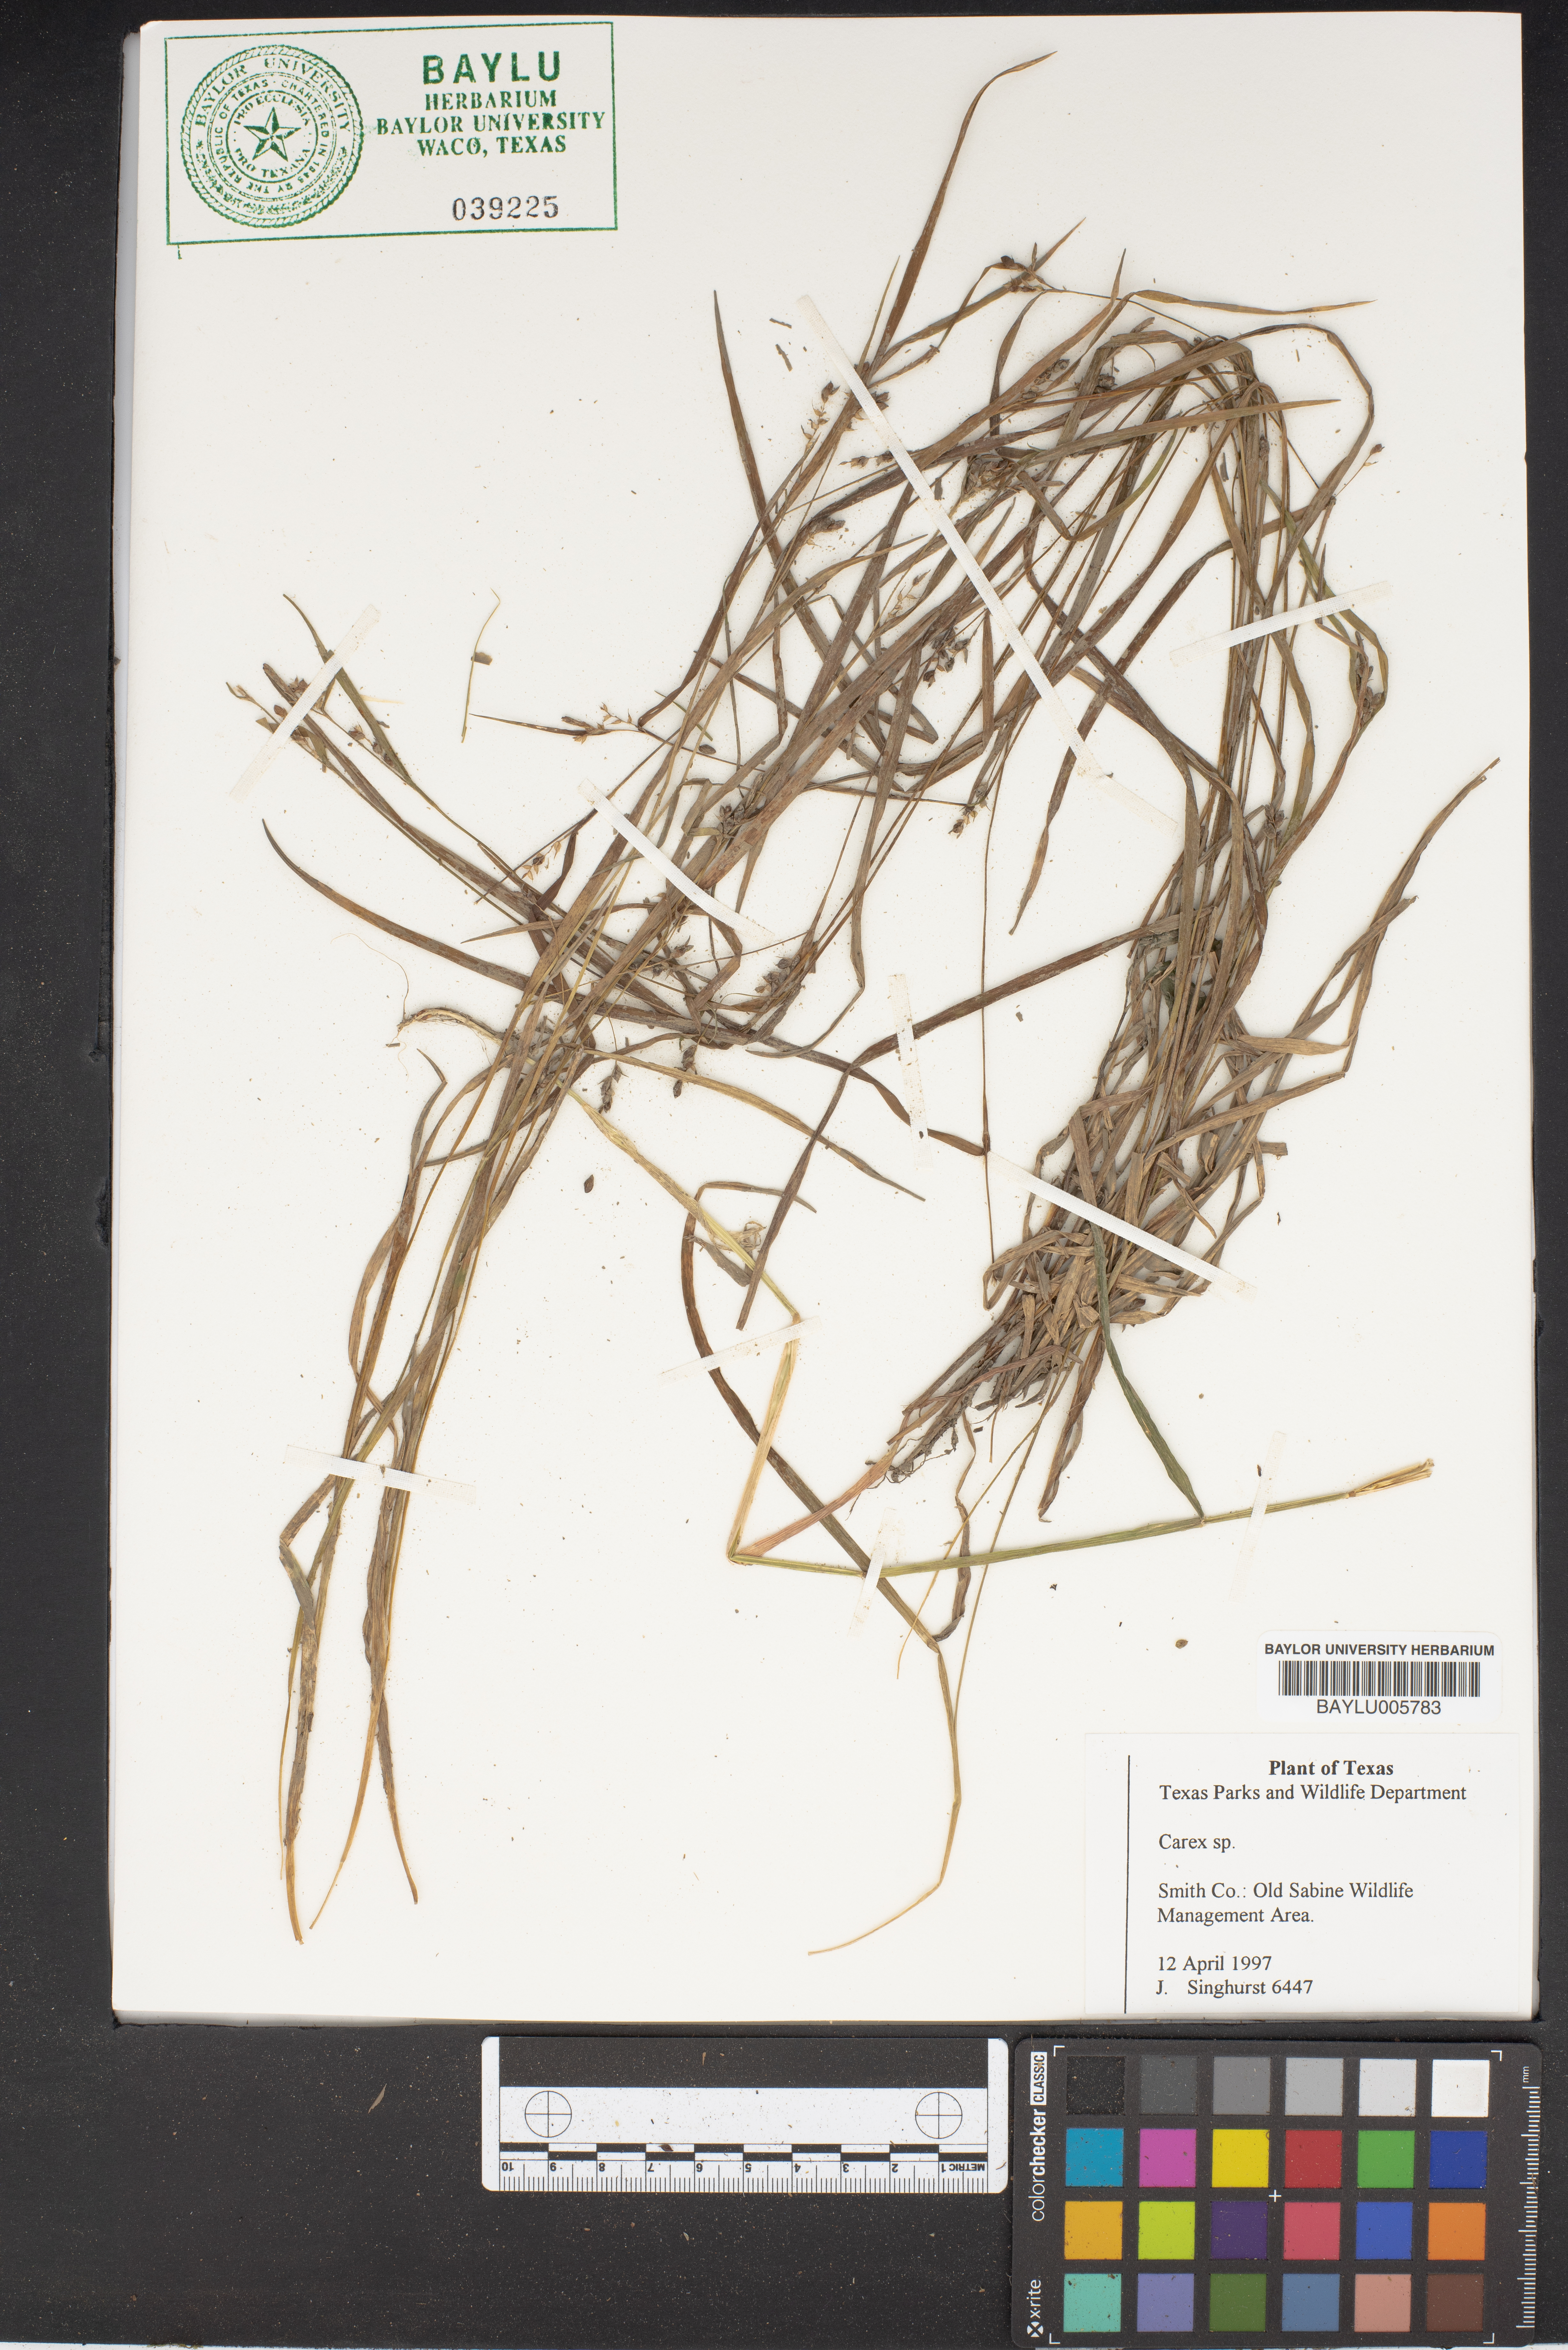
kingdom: Plantae
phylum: Tracheophyta
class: Liliopsida
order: Poales
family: Cyperaceae
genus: Carex
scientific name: Carex
